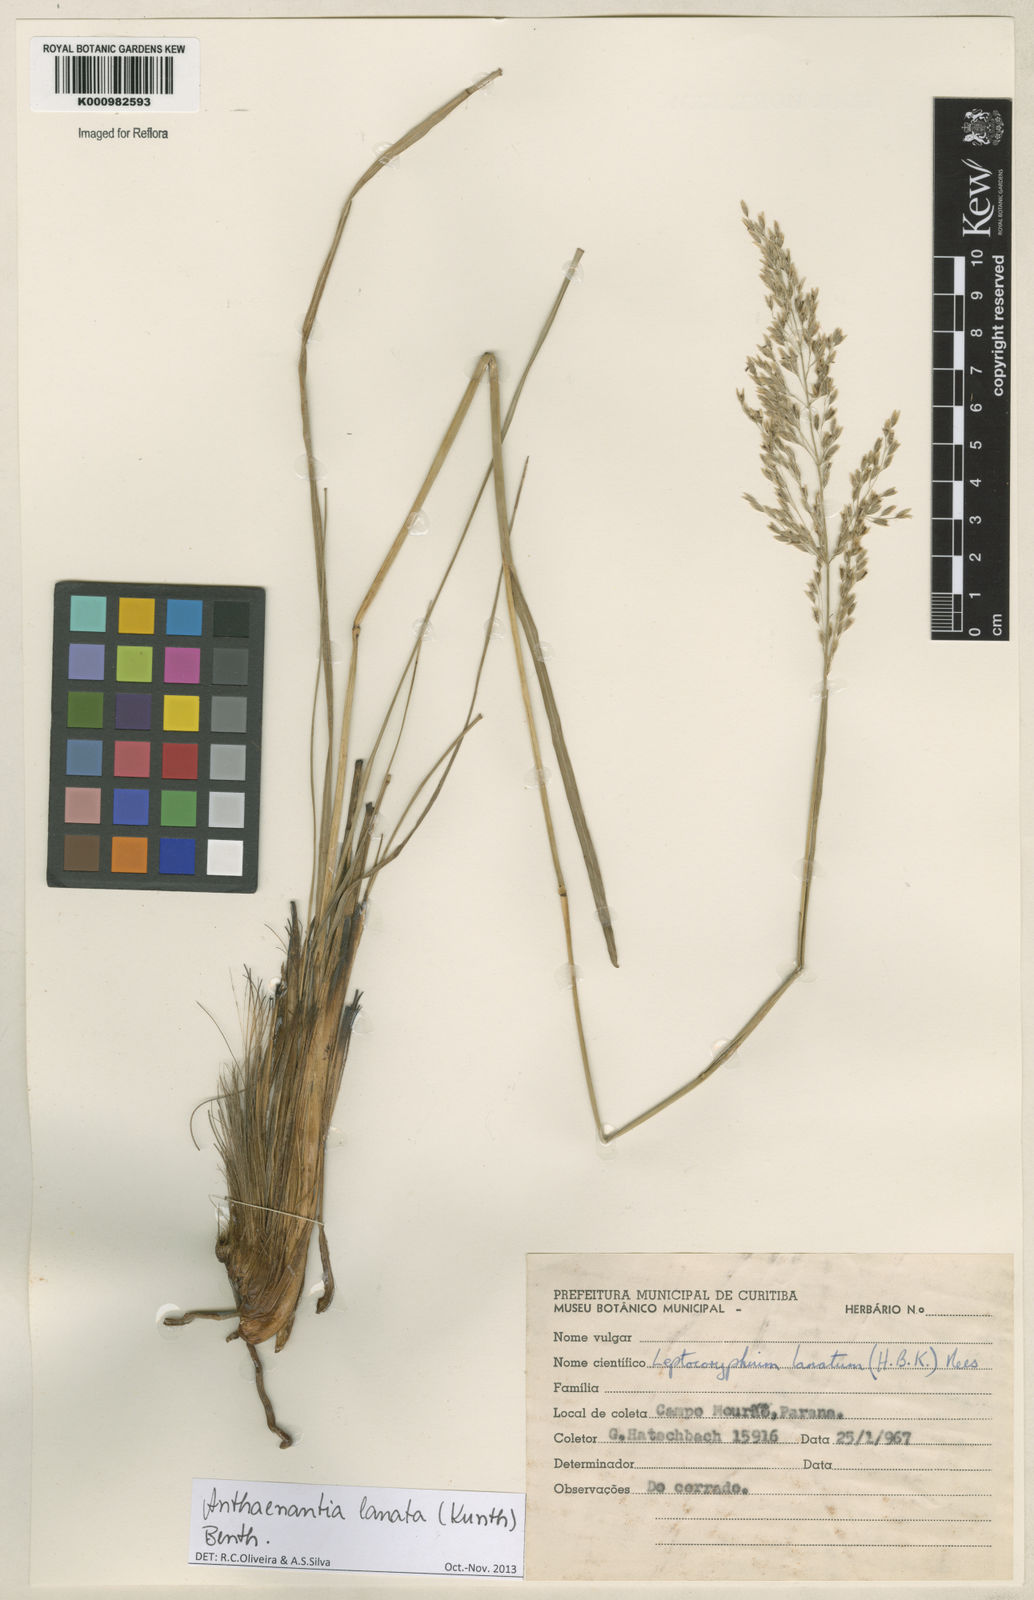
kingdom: Plantae
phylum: Tracheophyta
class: Liliopsida
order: Poales
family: Poaceae
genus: Anthenantia
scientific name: Anthenantia lanata
